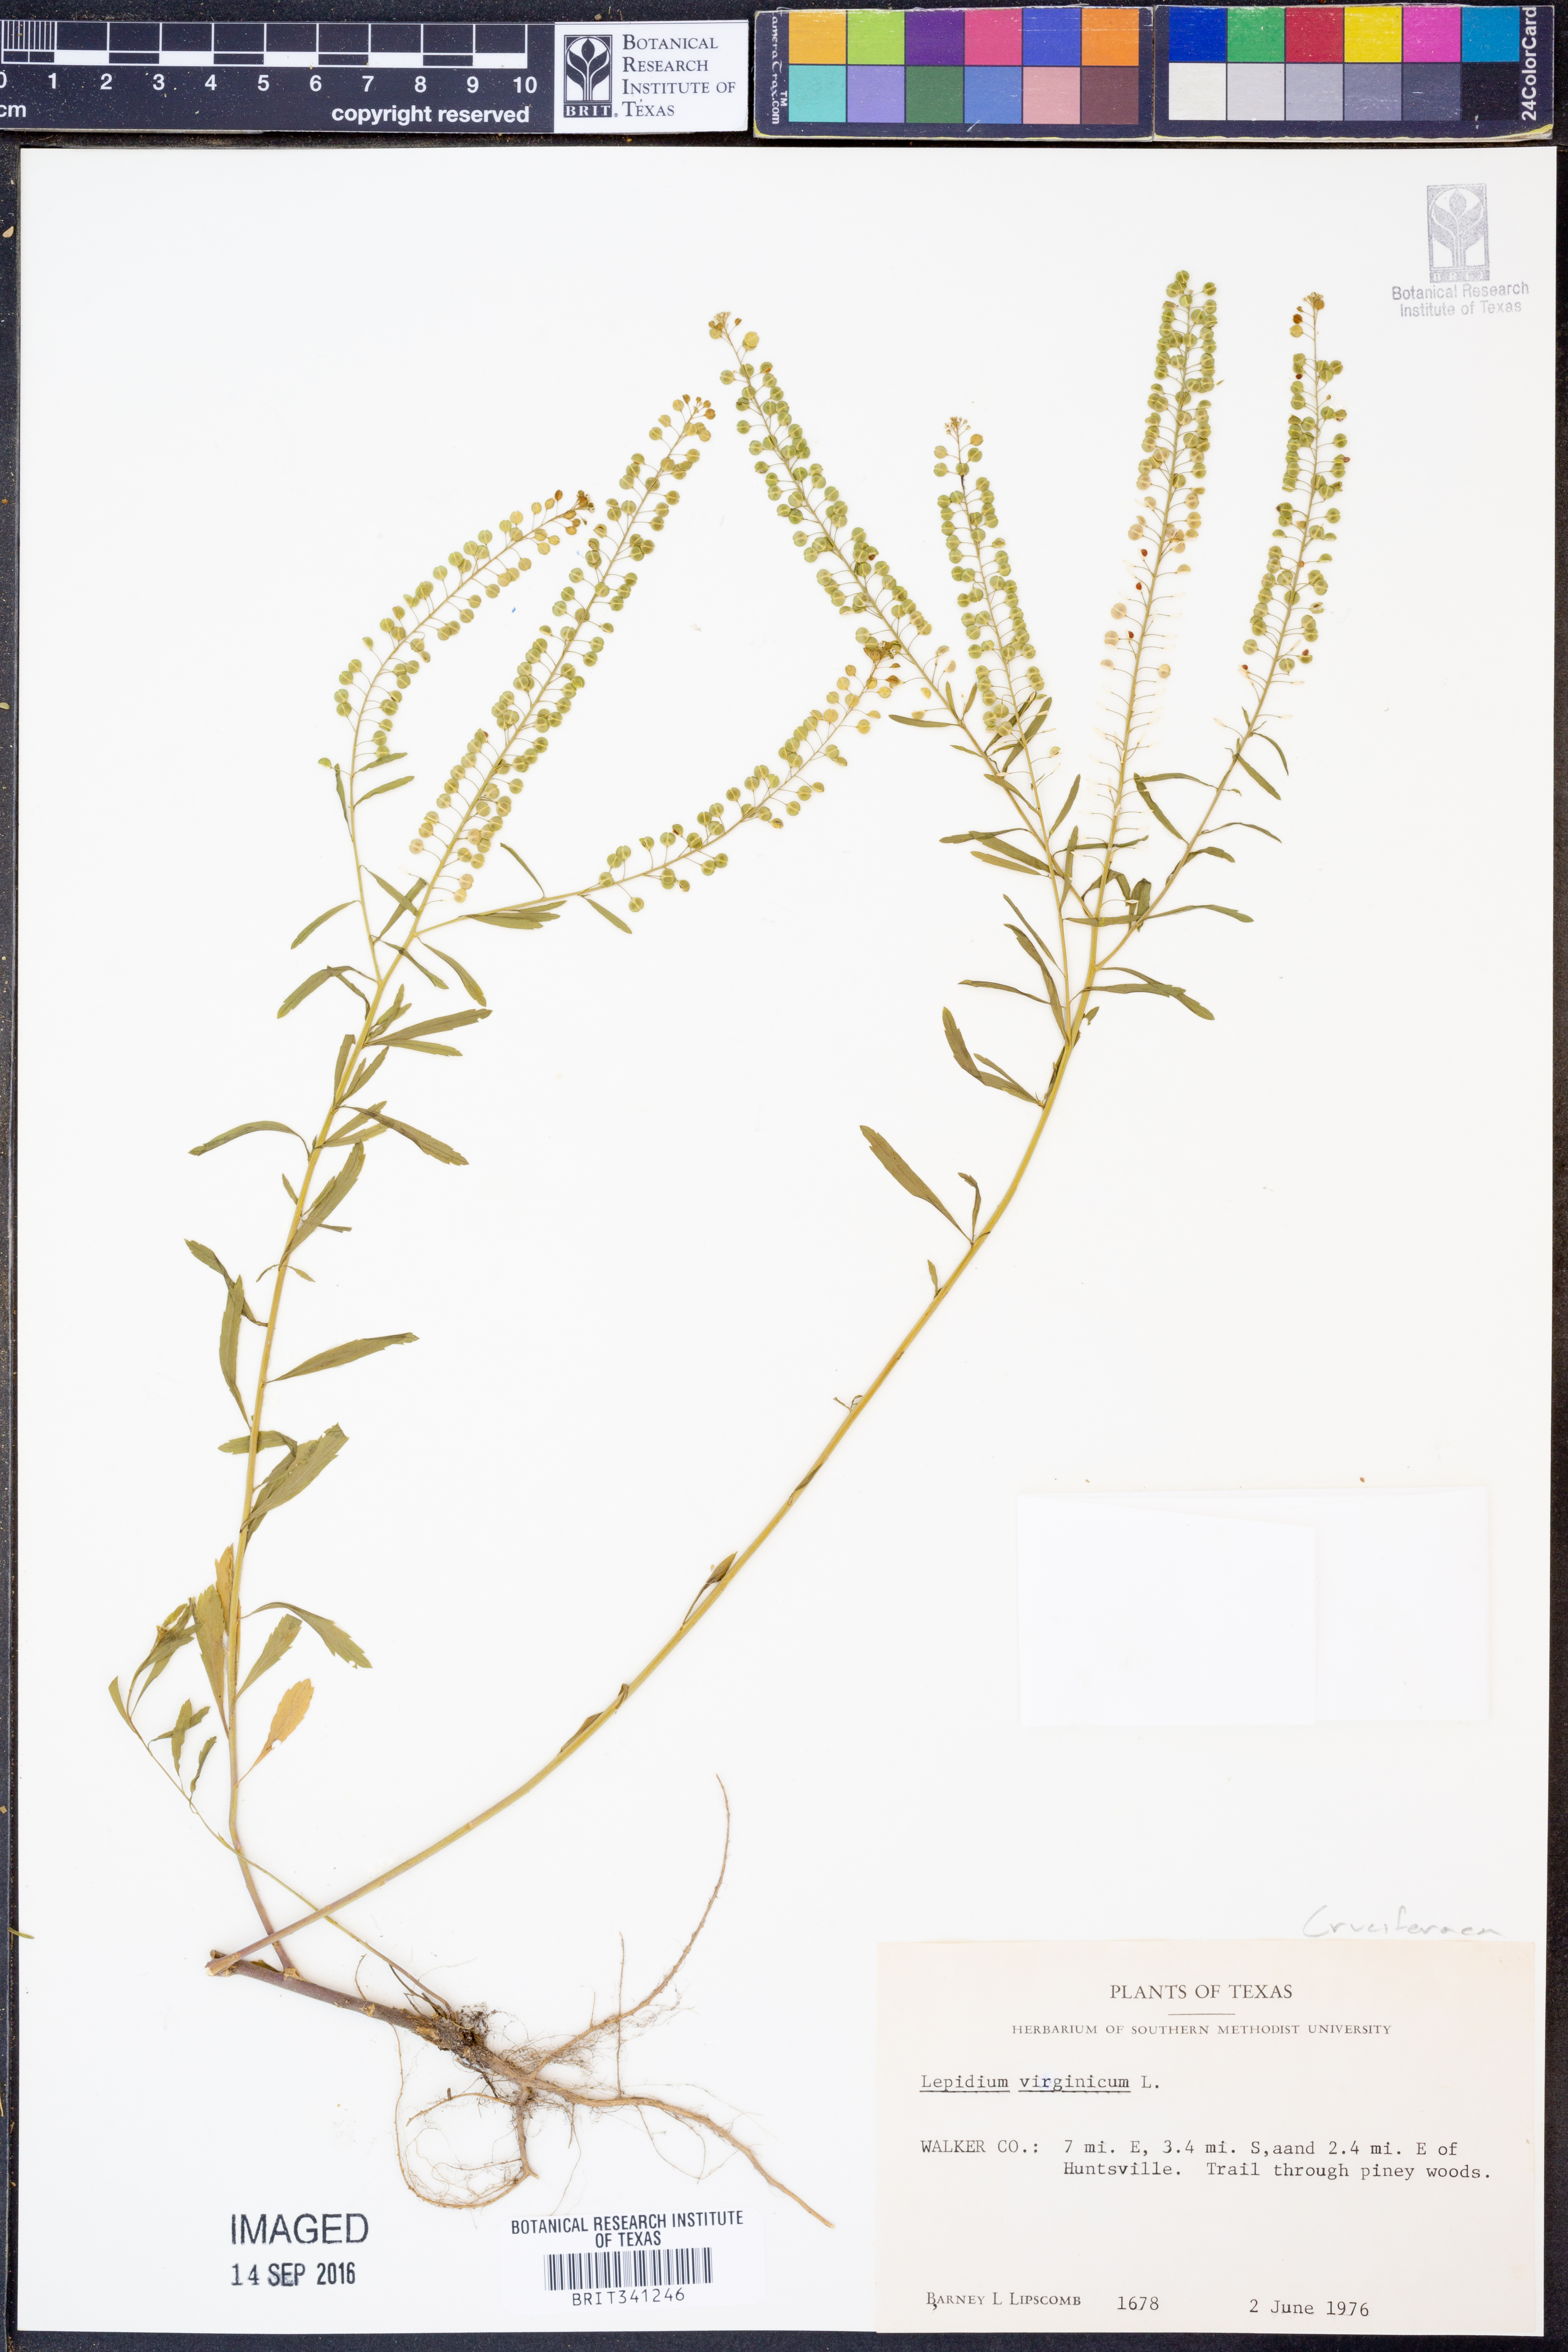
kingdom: Plantae
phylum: Tracheophyta
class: Magnoliopsida
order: Brassicales
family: Brassicaceae
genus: Lepidium
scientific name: Lepidium virginicum
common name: Least pepperwort
